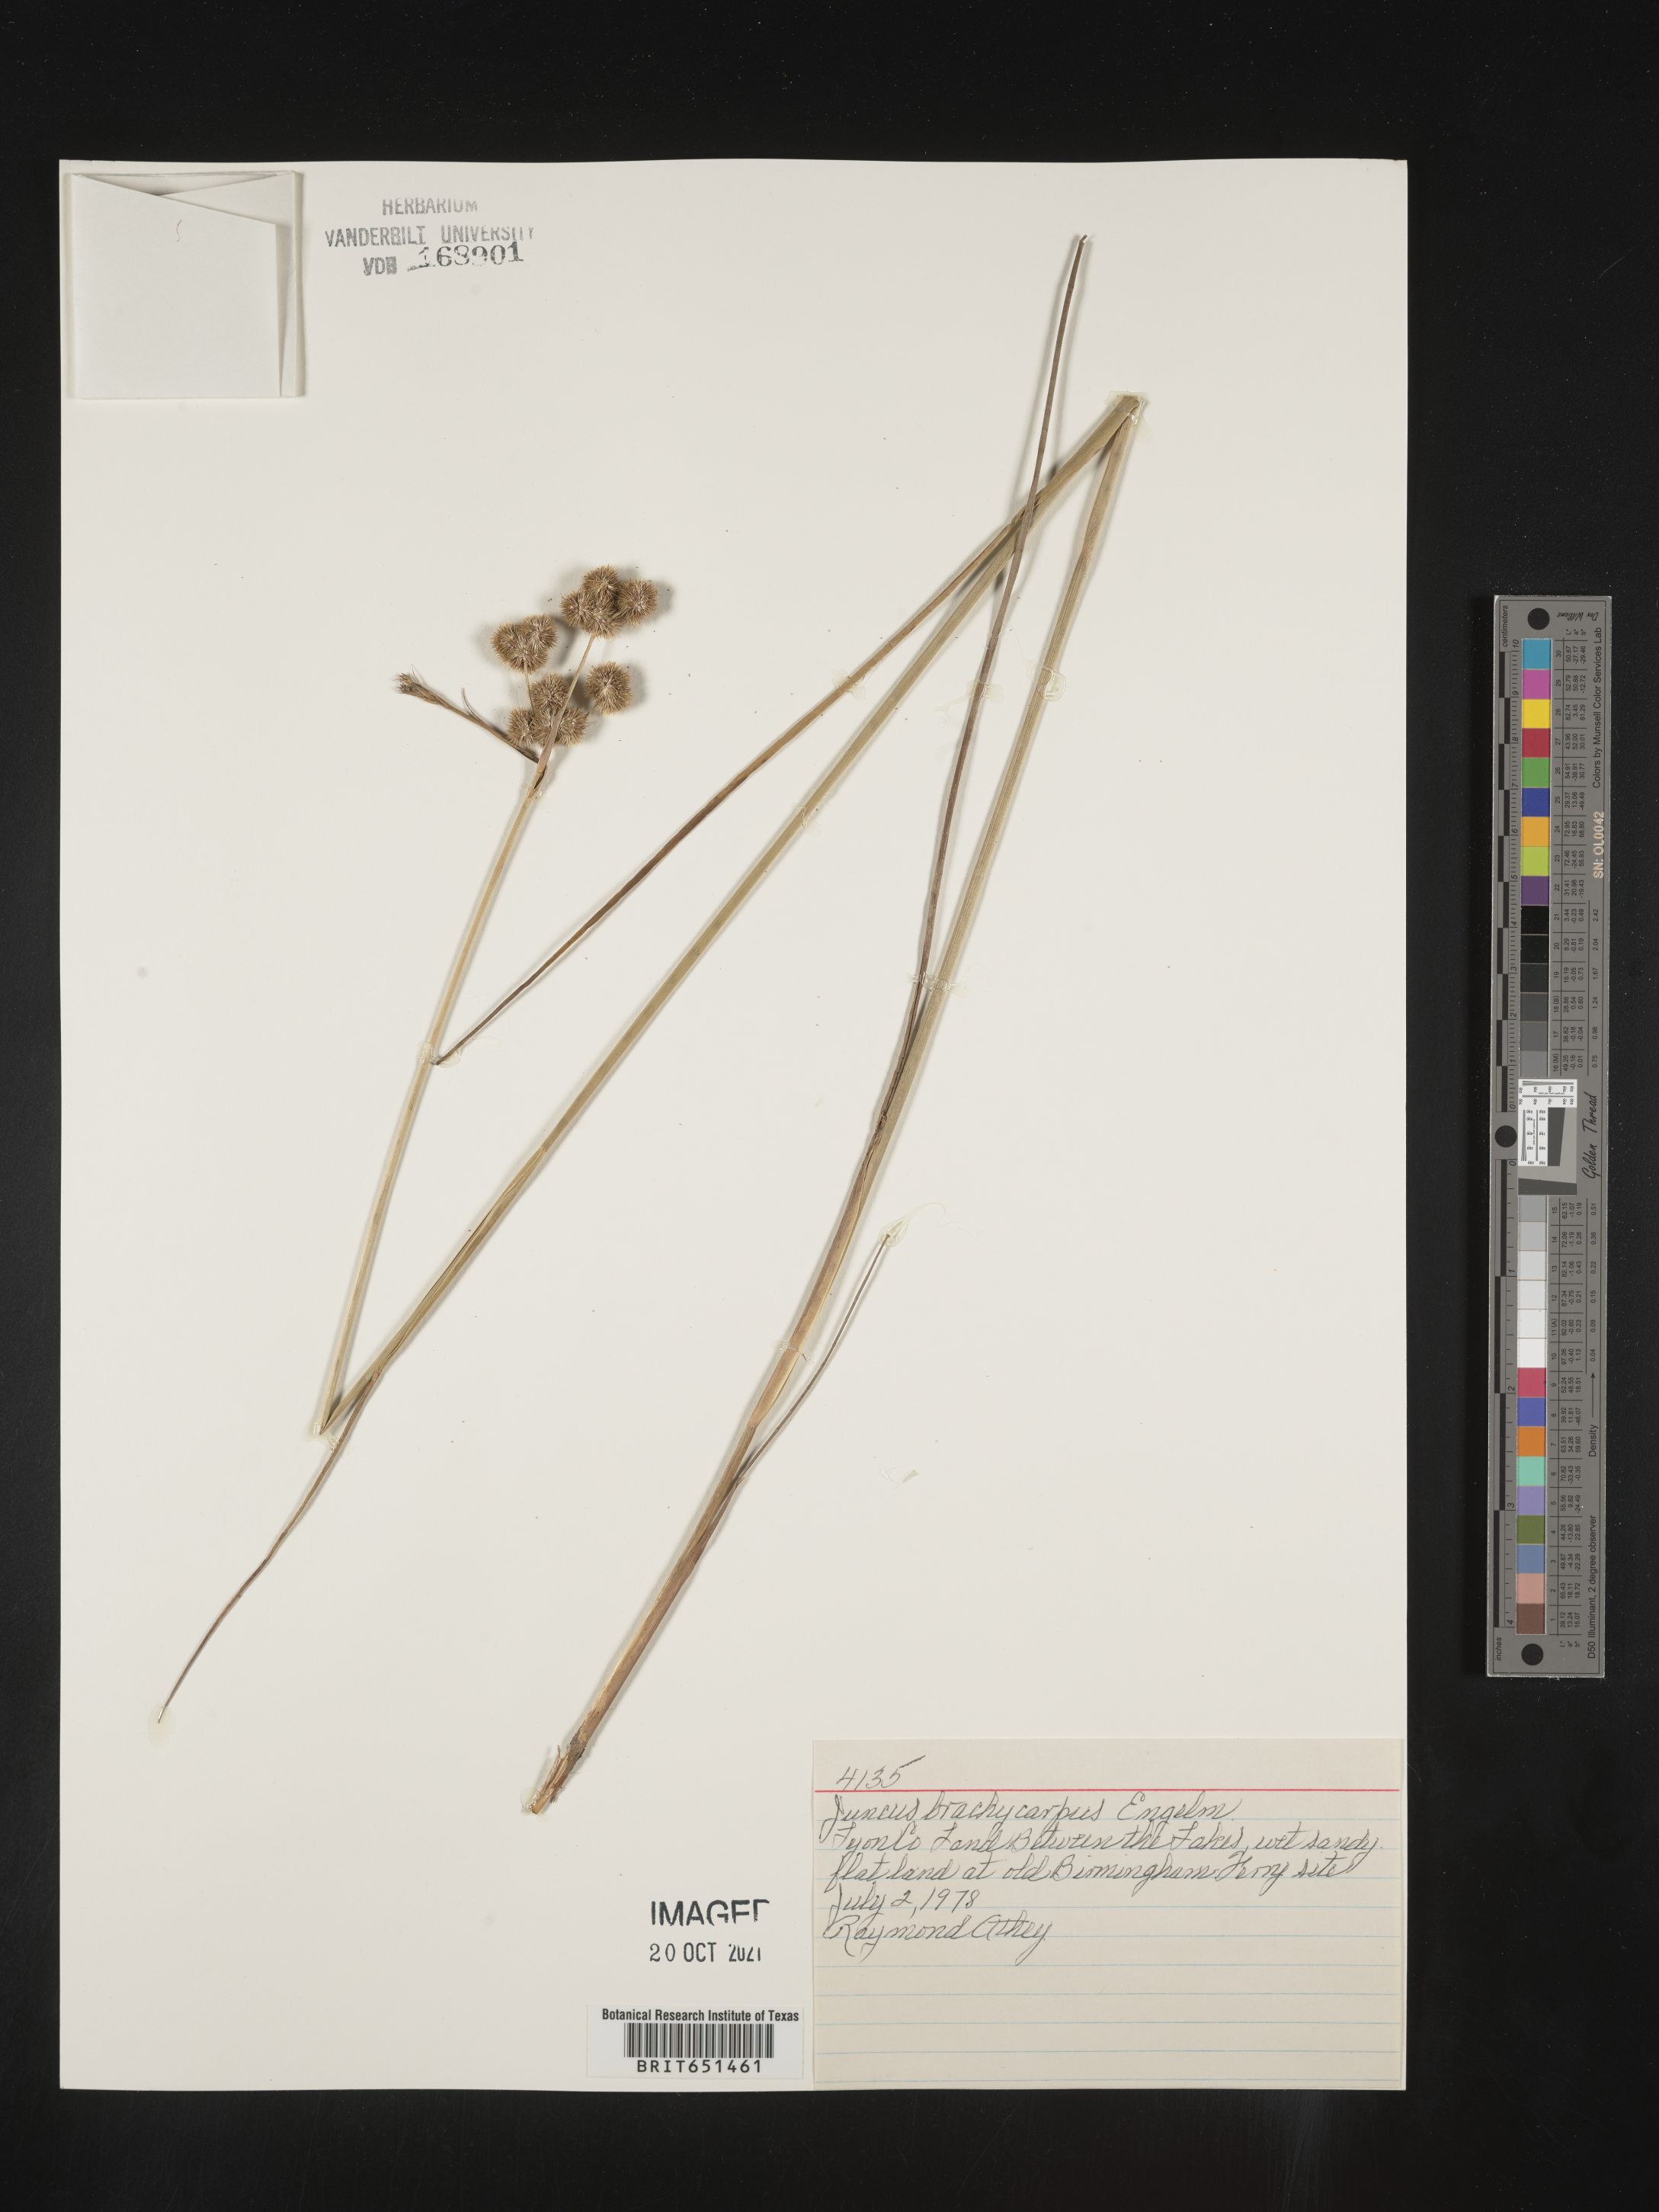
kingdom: Plantae
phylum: Tracheophyta
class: Liliopsida
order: Poales
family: Juncaceae
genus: Juncus
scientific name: Juncus brachycarpus
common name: Shore rush
